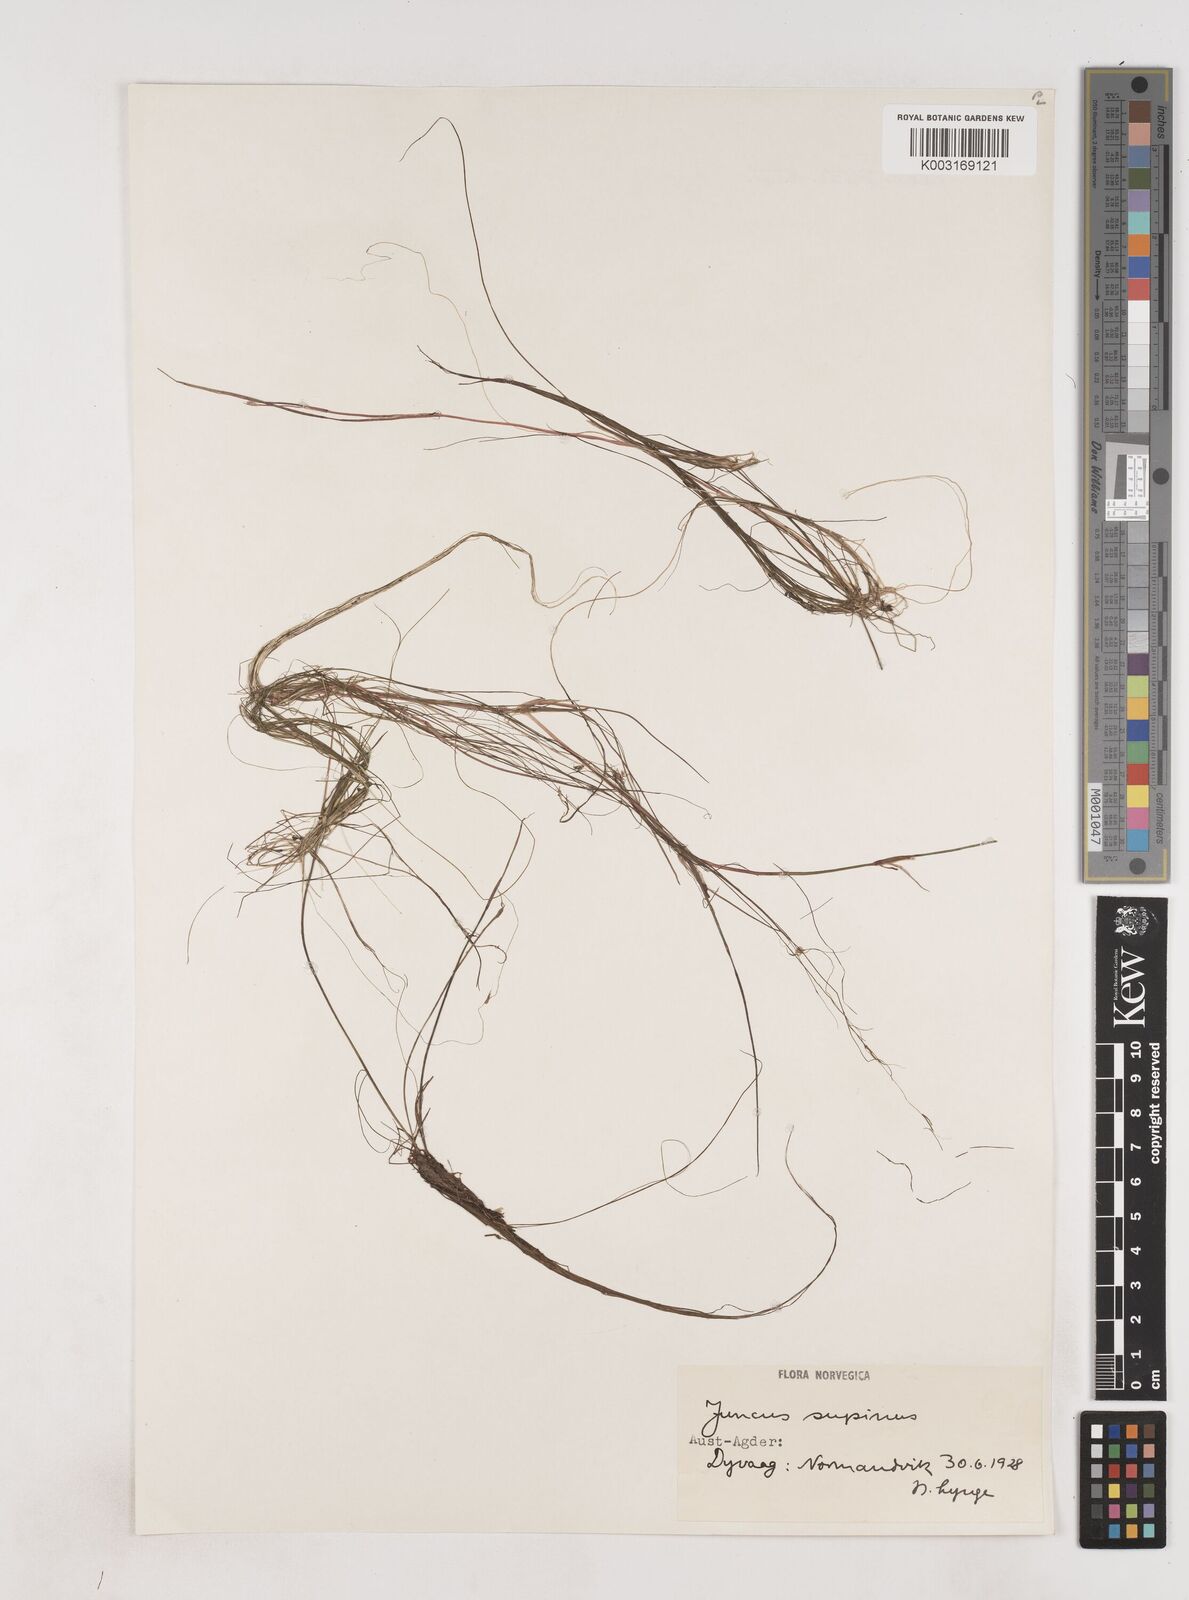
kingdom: Plantae
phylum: Tracheophyta
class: Liliopsida
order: Poales
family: Juncaceae
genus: Juncus
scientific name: Juncus bulbosus
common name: Bulbous rush
